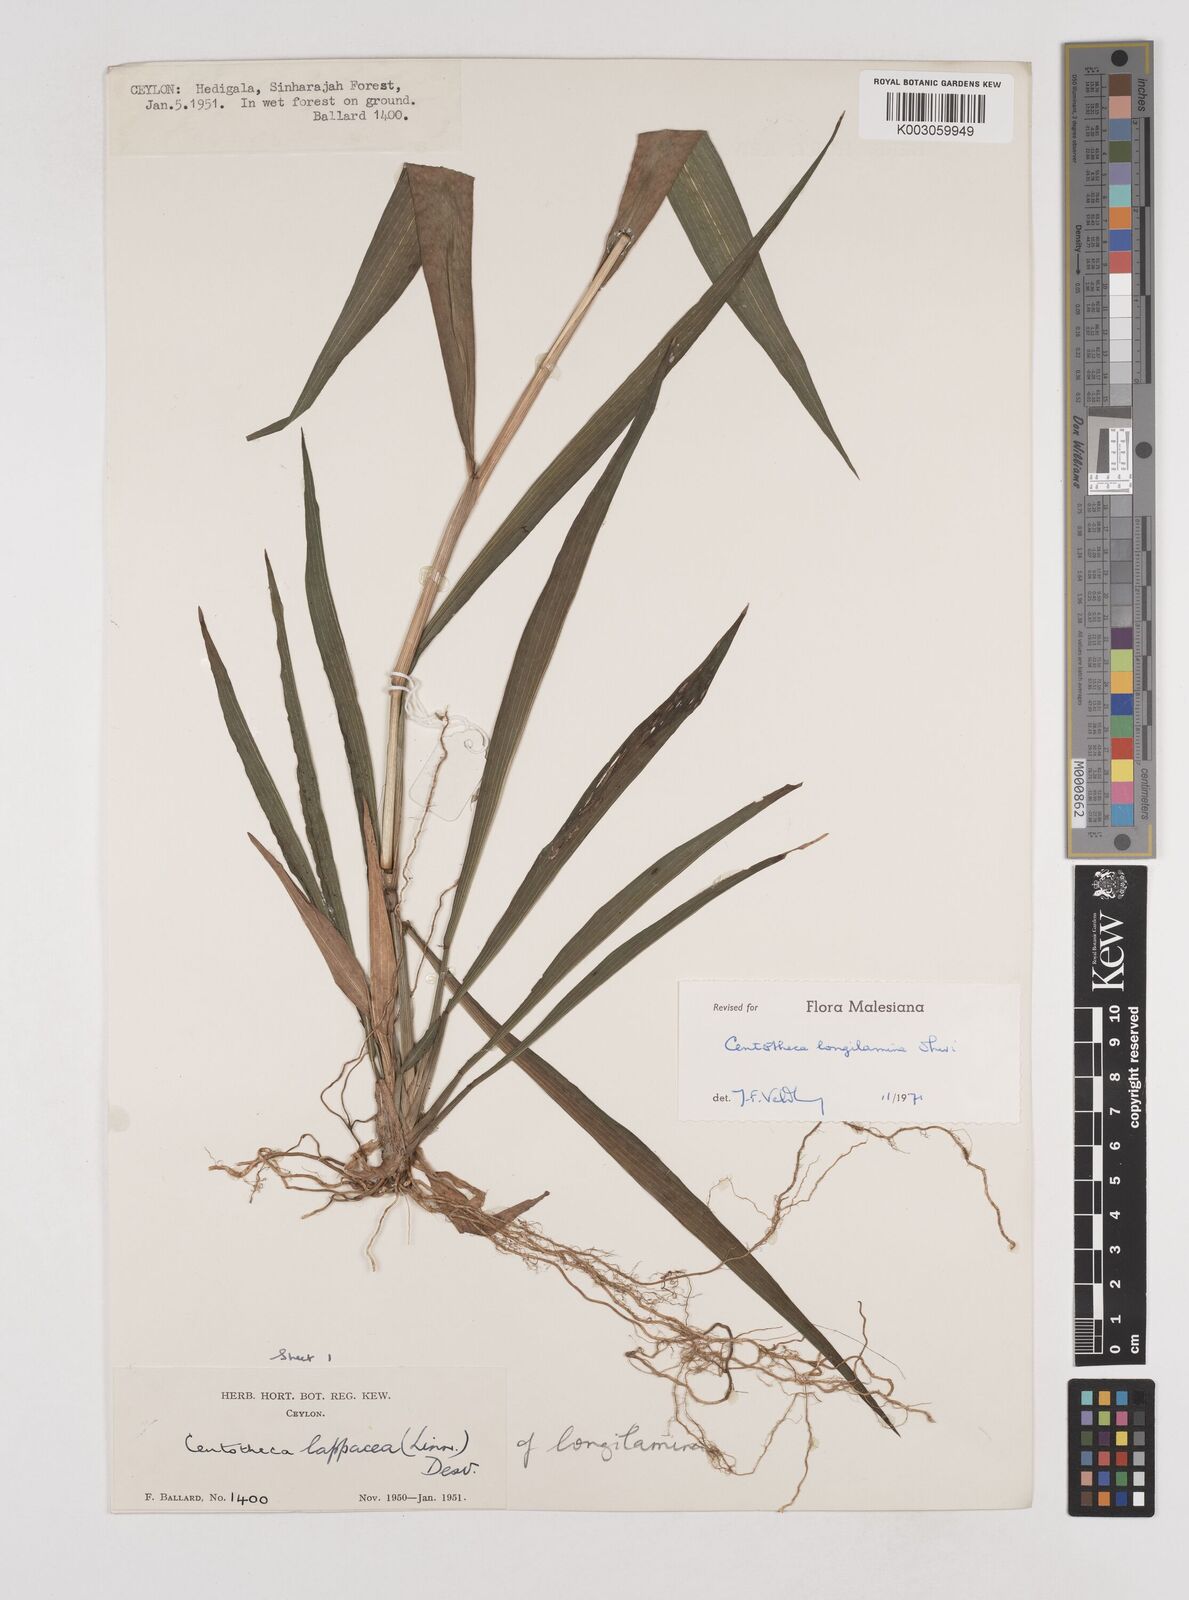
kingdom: Plantae
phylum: Tracheophyta
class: Liliopsida
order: Poales
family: Poaceae
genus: Centotheca
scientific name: Centotheca lappacea
